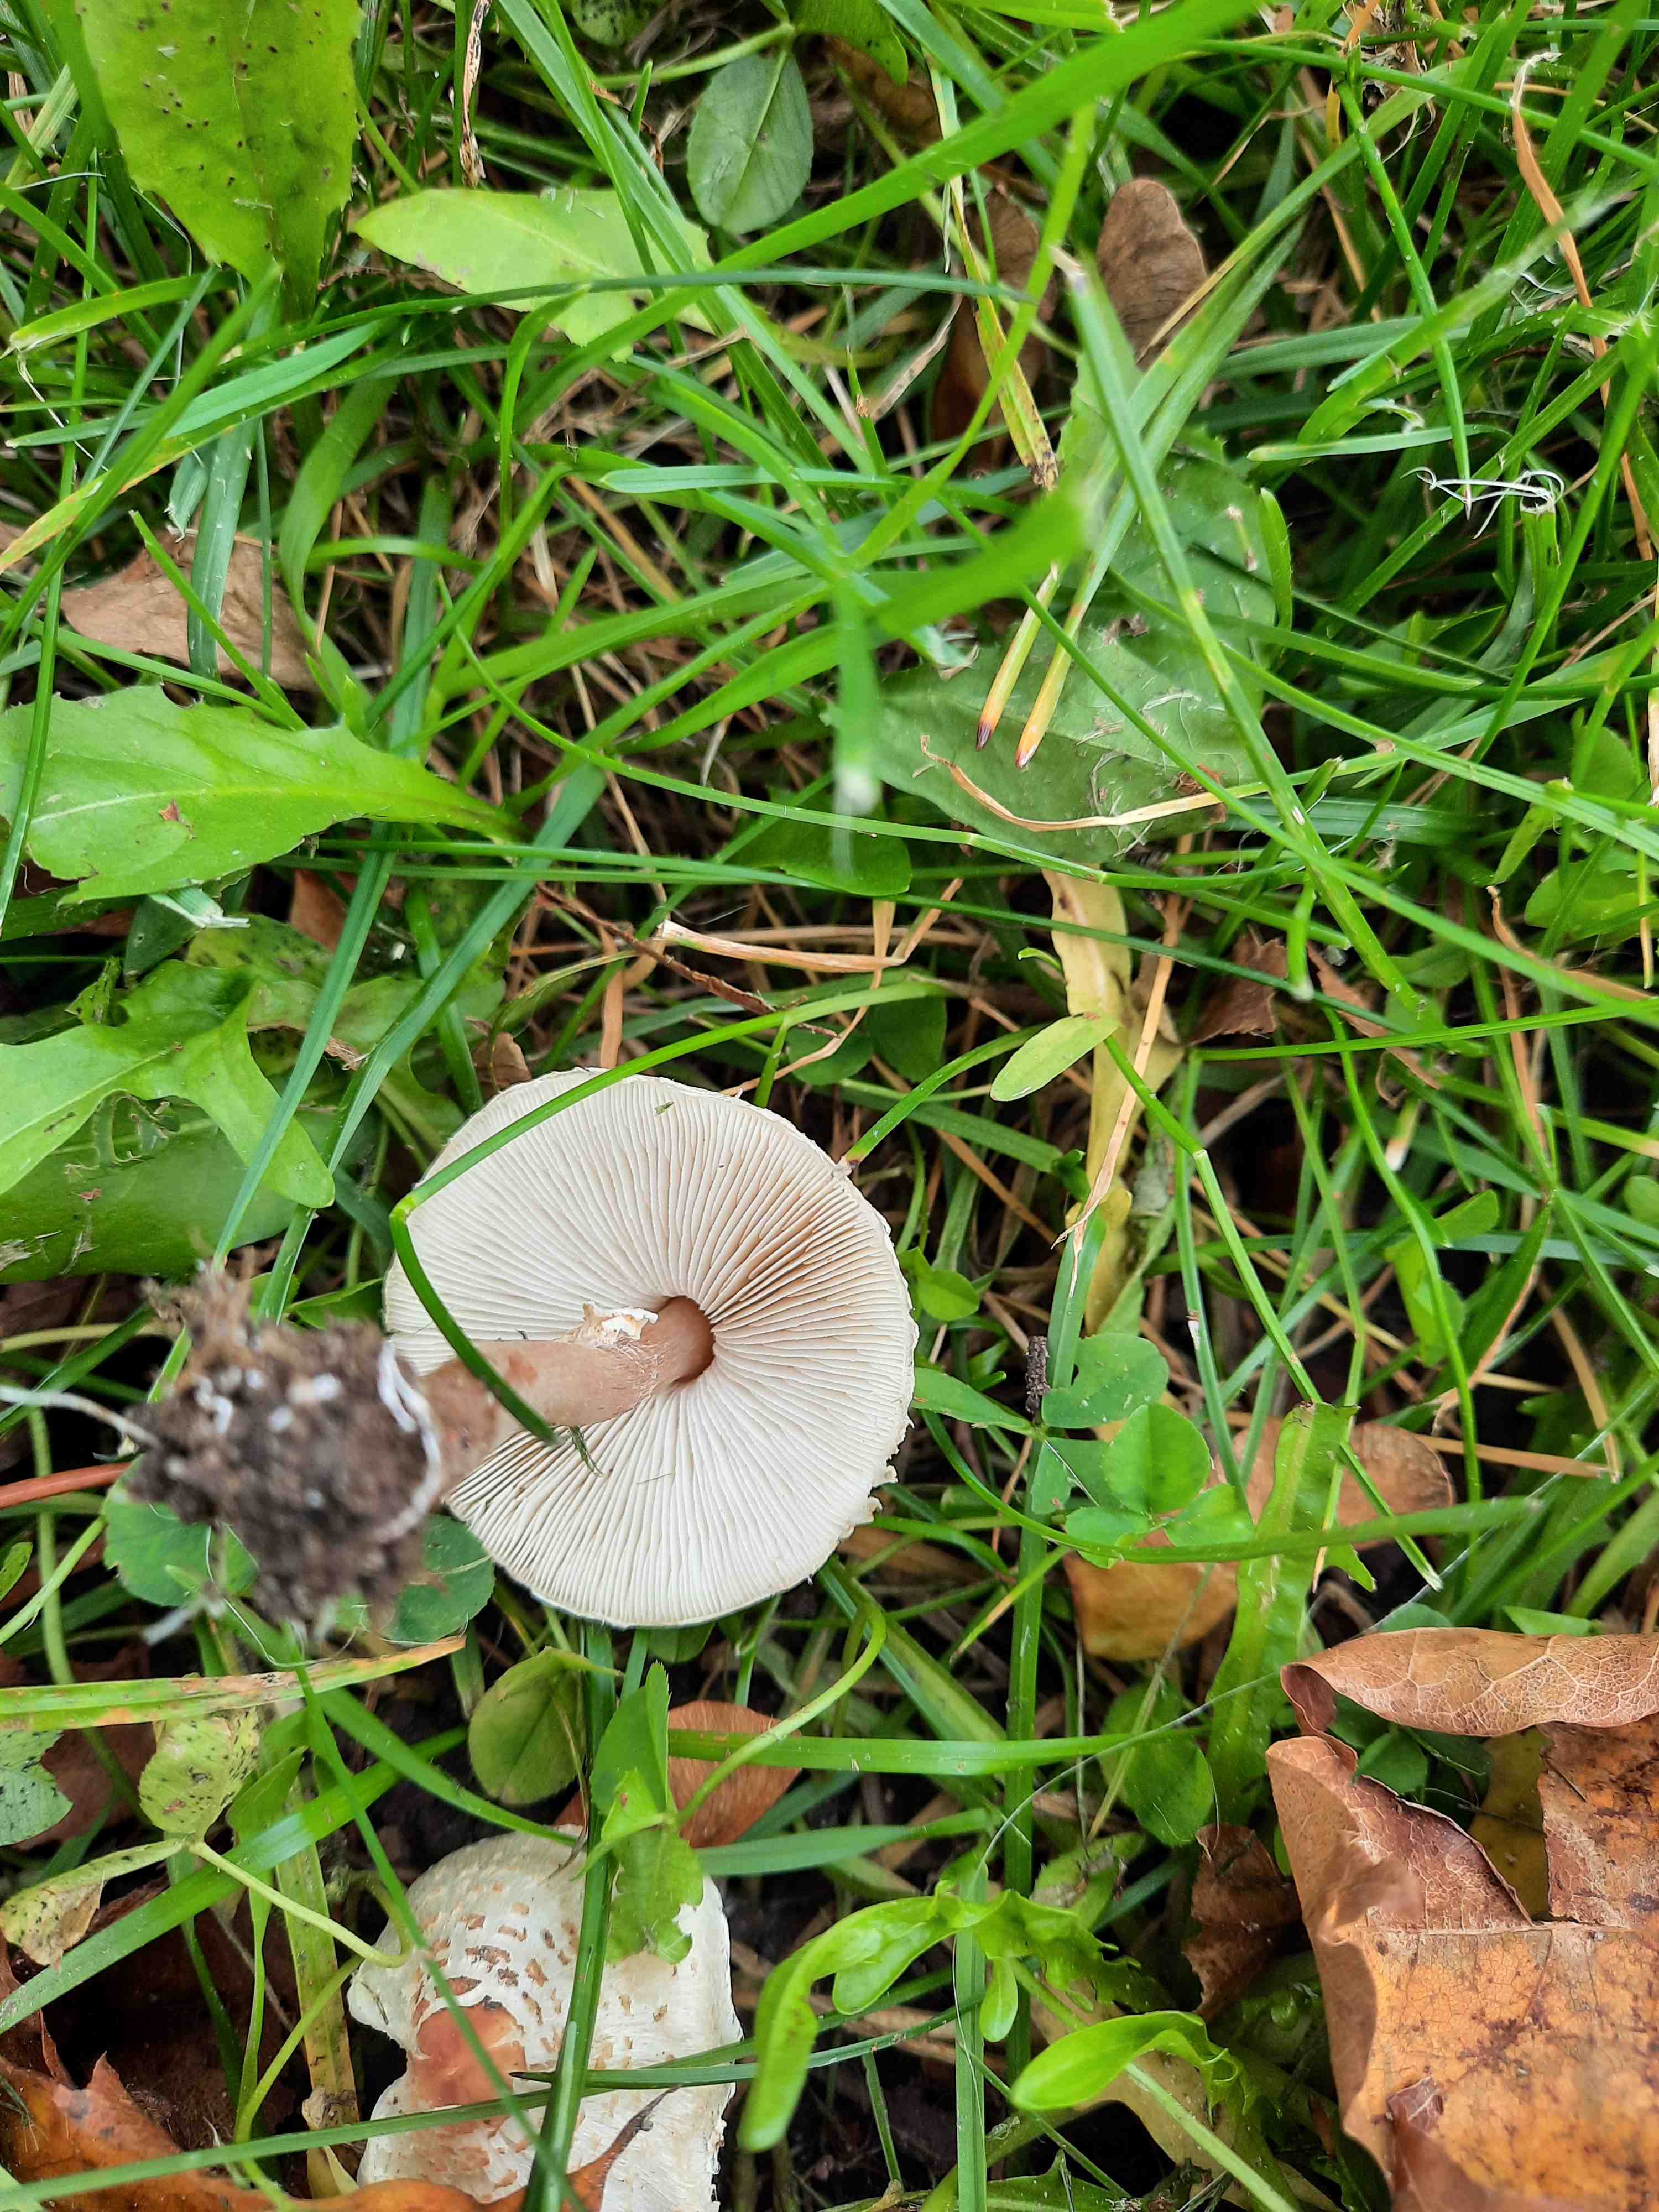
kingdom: Fungi
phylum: Basidiomycota
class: Agaricomycetes
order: Agaricales
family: Agaricaceae
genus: Lepiota
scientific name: Lepiota cristata
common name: stinkende parasolhat
